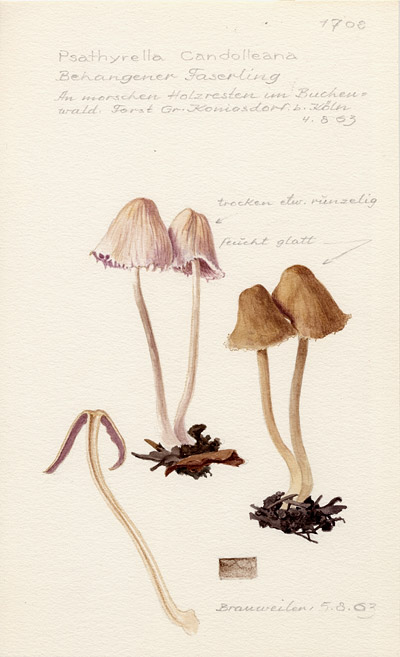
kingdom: Fungi
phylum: Basidiomycota
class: Agaricomycetes
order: Agaricales
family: Psathyrellaceae
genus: Candolleomyces
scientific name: Candolleomyces candolleanus
